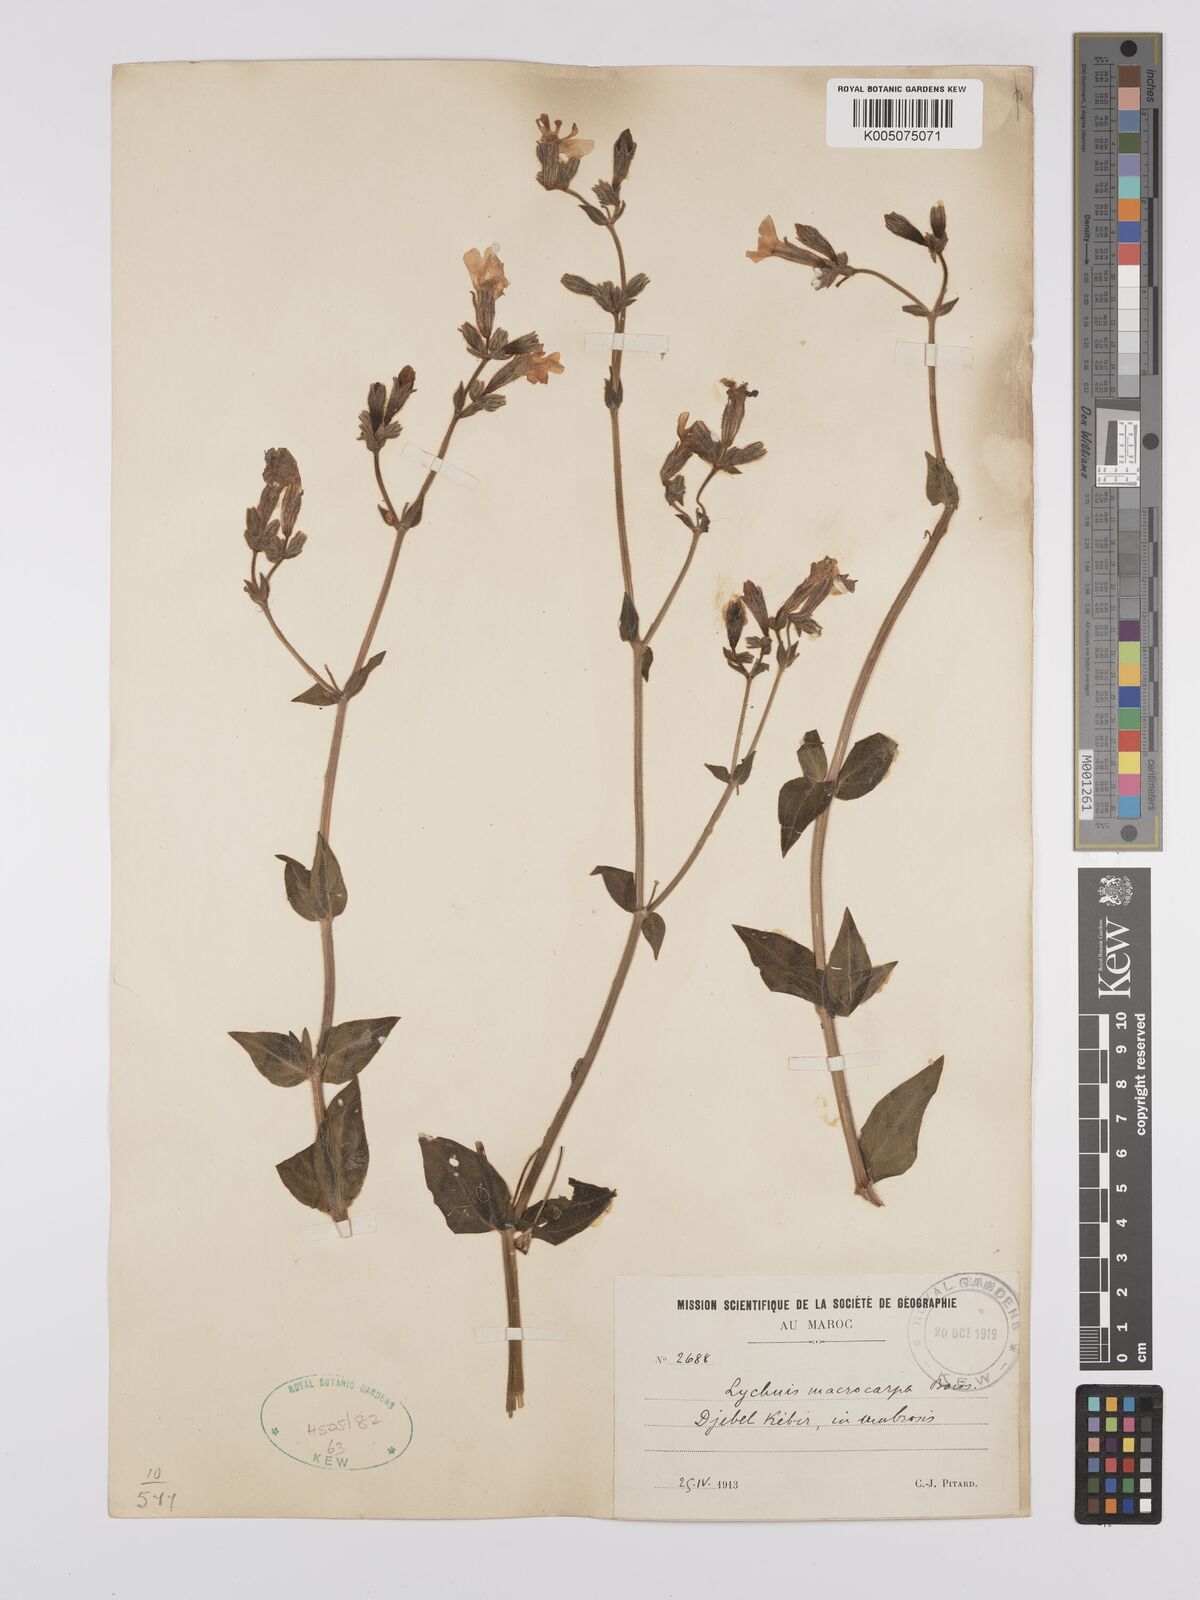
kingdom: Plantae
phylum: Tracheophyta
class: Magnoliopsida
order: Caryophyllales
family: Caryophyllaceae
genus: Silene
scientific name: Silene
